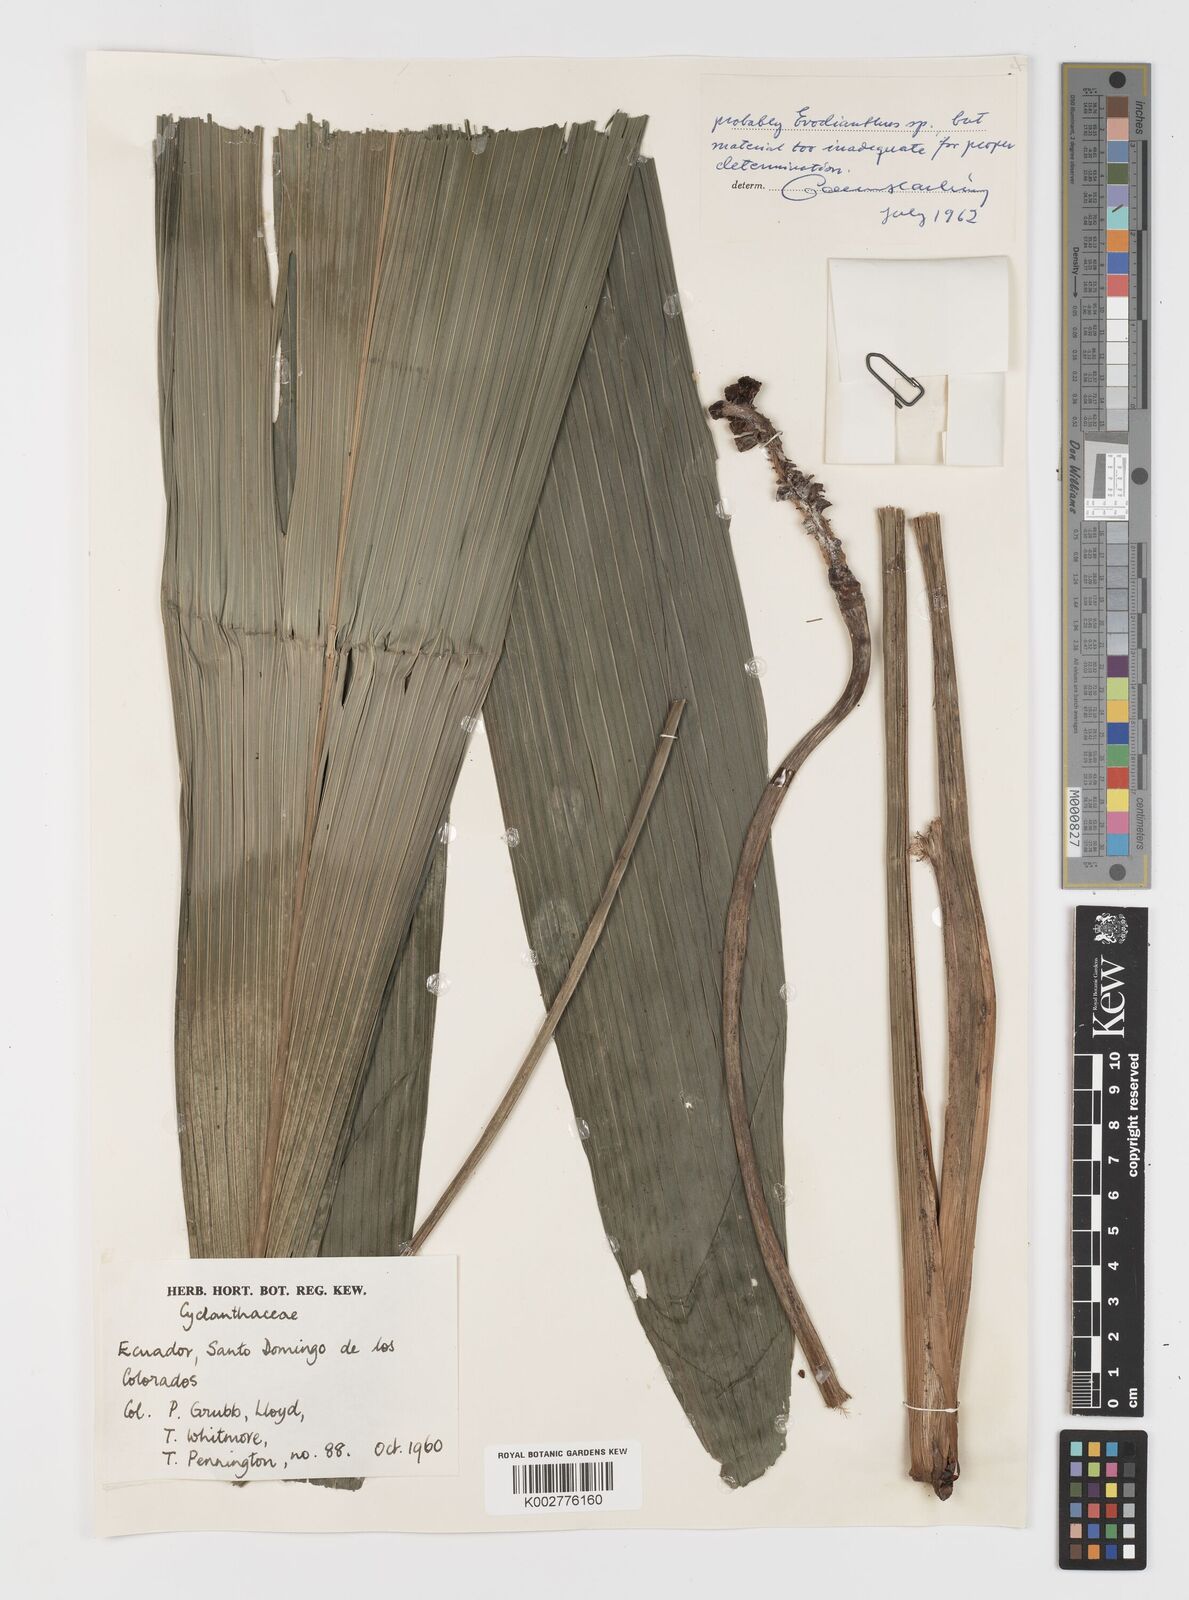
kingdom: Plantae
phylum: Tracheophyta
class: Liliopsida
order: Pandanales
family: Cyclanthaceae
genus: Evodianthus
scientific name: Evodianthus
